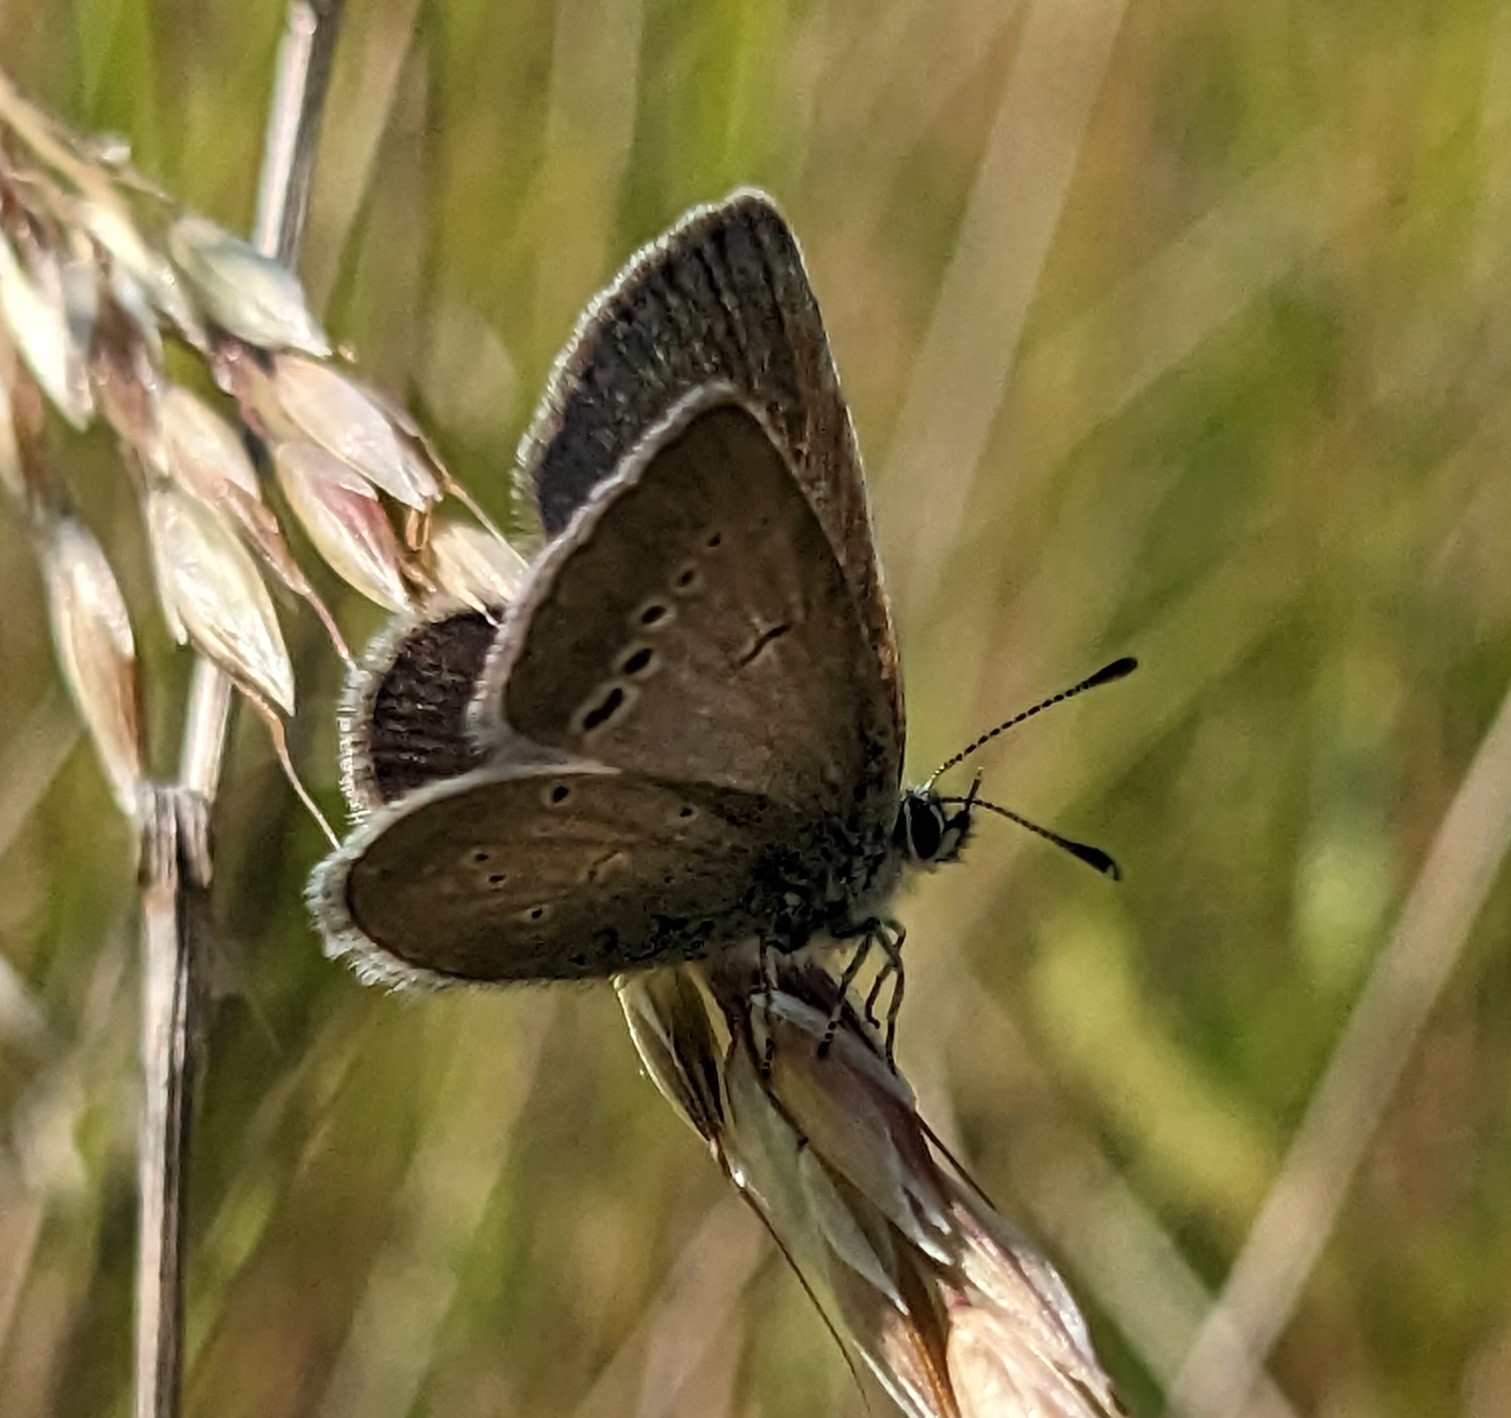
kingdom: Animalia
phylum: Arthropoda
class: Insecta
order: Lepidoptera
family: Lycaenidae
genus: Cupido
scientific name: Cupido minimus
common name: Dværgblåfugl
